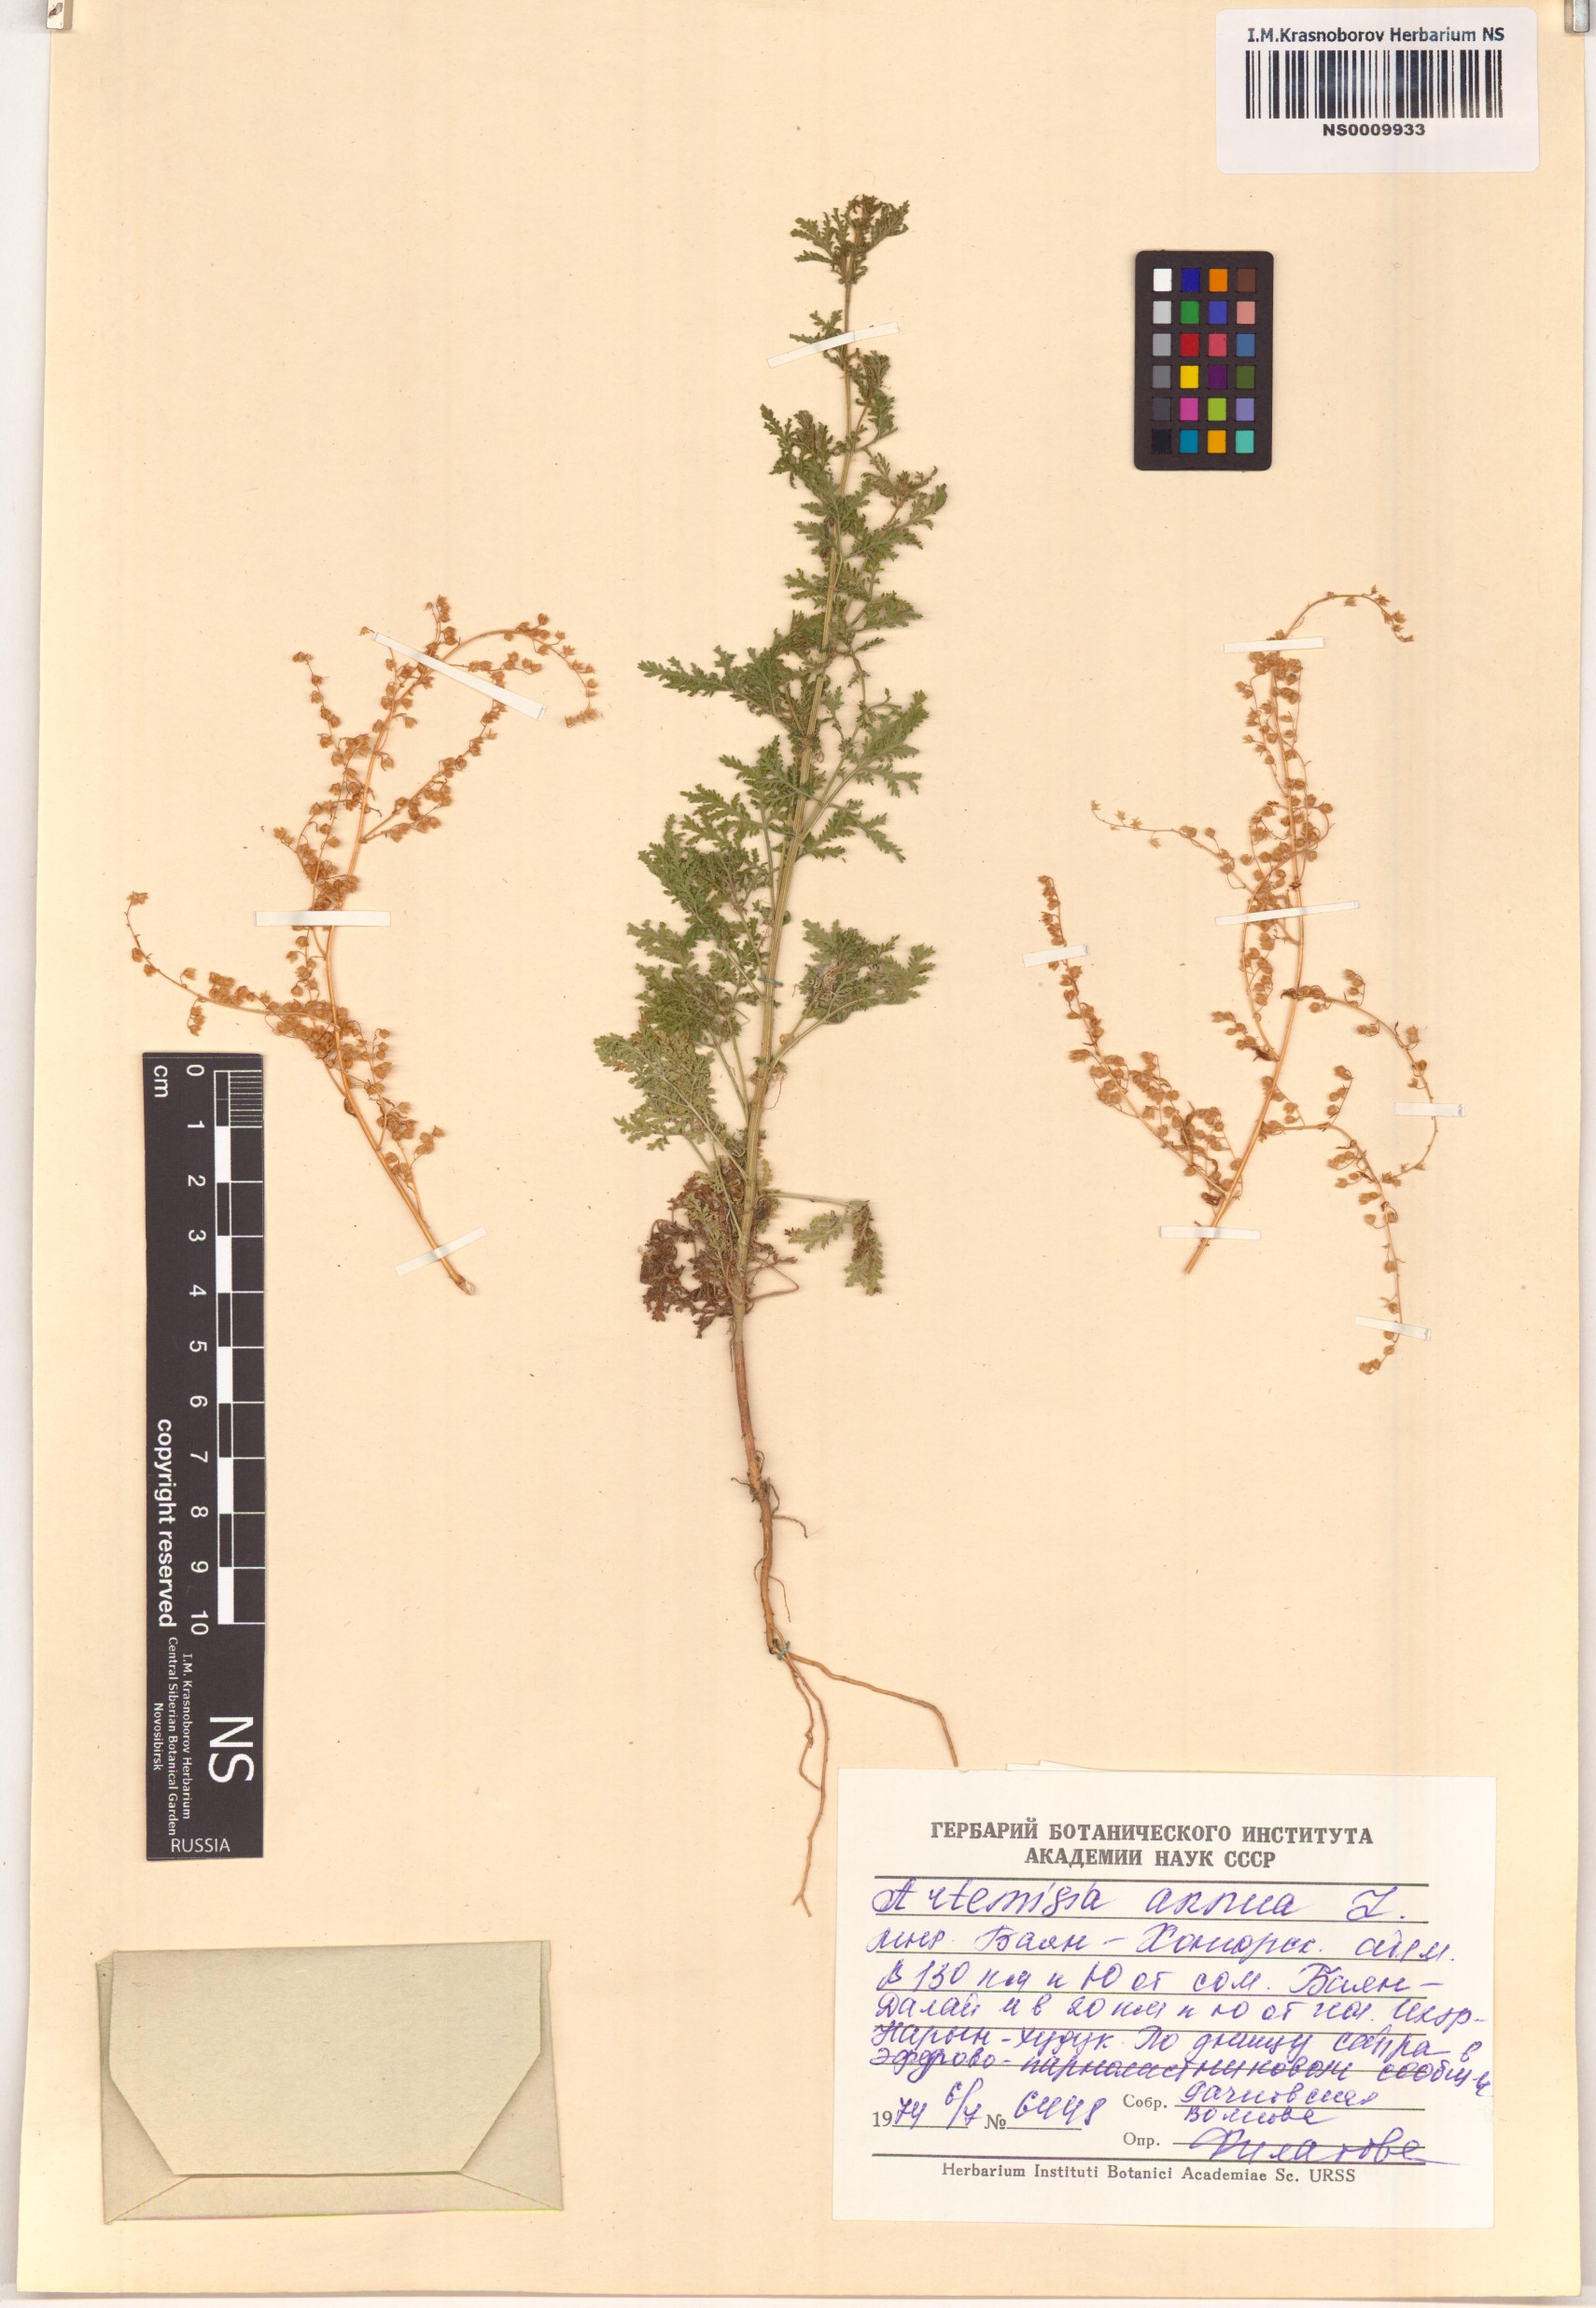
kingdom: Plantae
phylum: Tracheophyta
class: Magnoliopsida
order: Asterales
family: Asteraceae
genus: Artemisia
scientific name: Artemisia annua
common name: Sweet sagewort
